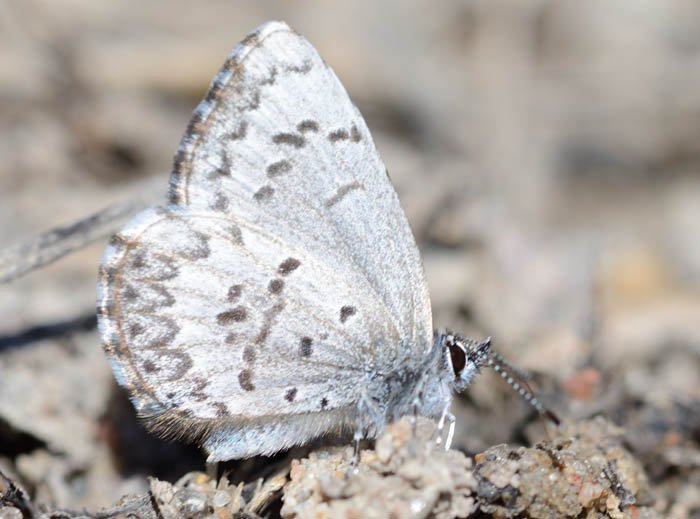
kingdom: Animalia
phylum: Arthropoda
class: Insecta
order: Lepidoptera
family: Lycaenidae
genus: Celastrina
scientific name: Celastrina lucia
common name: Northern Spring Azure
